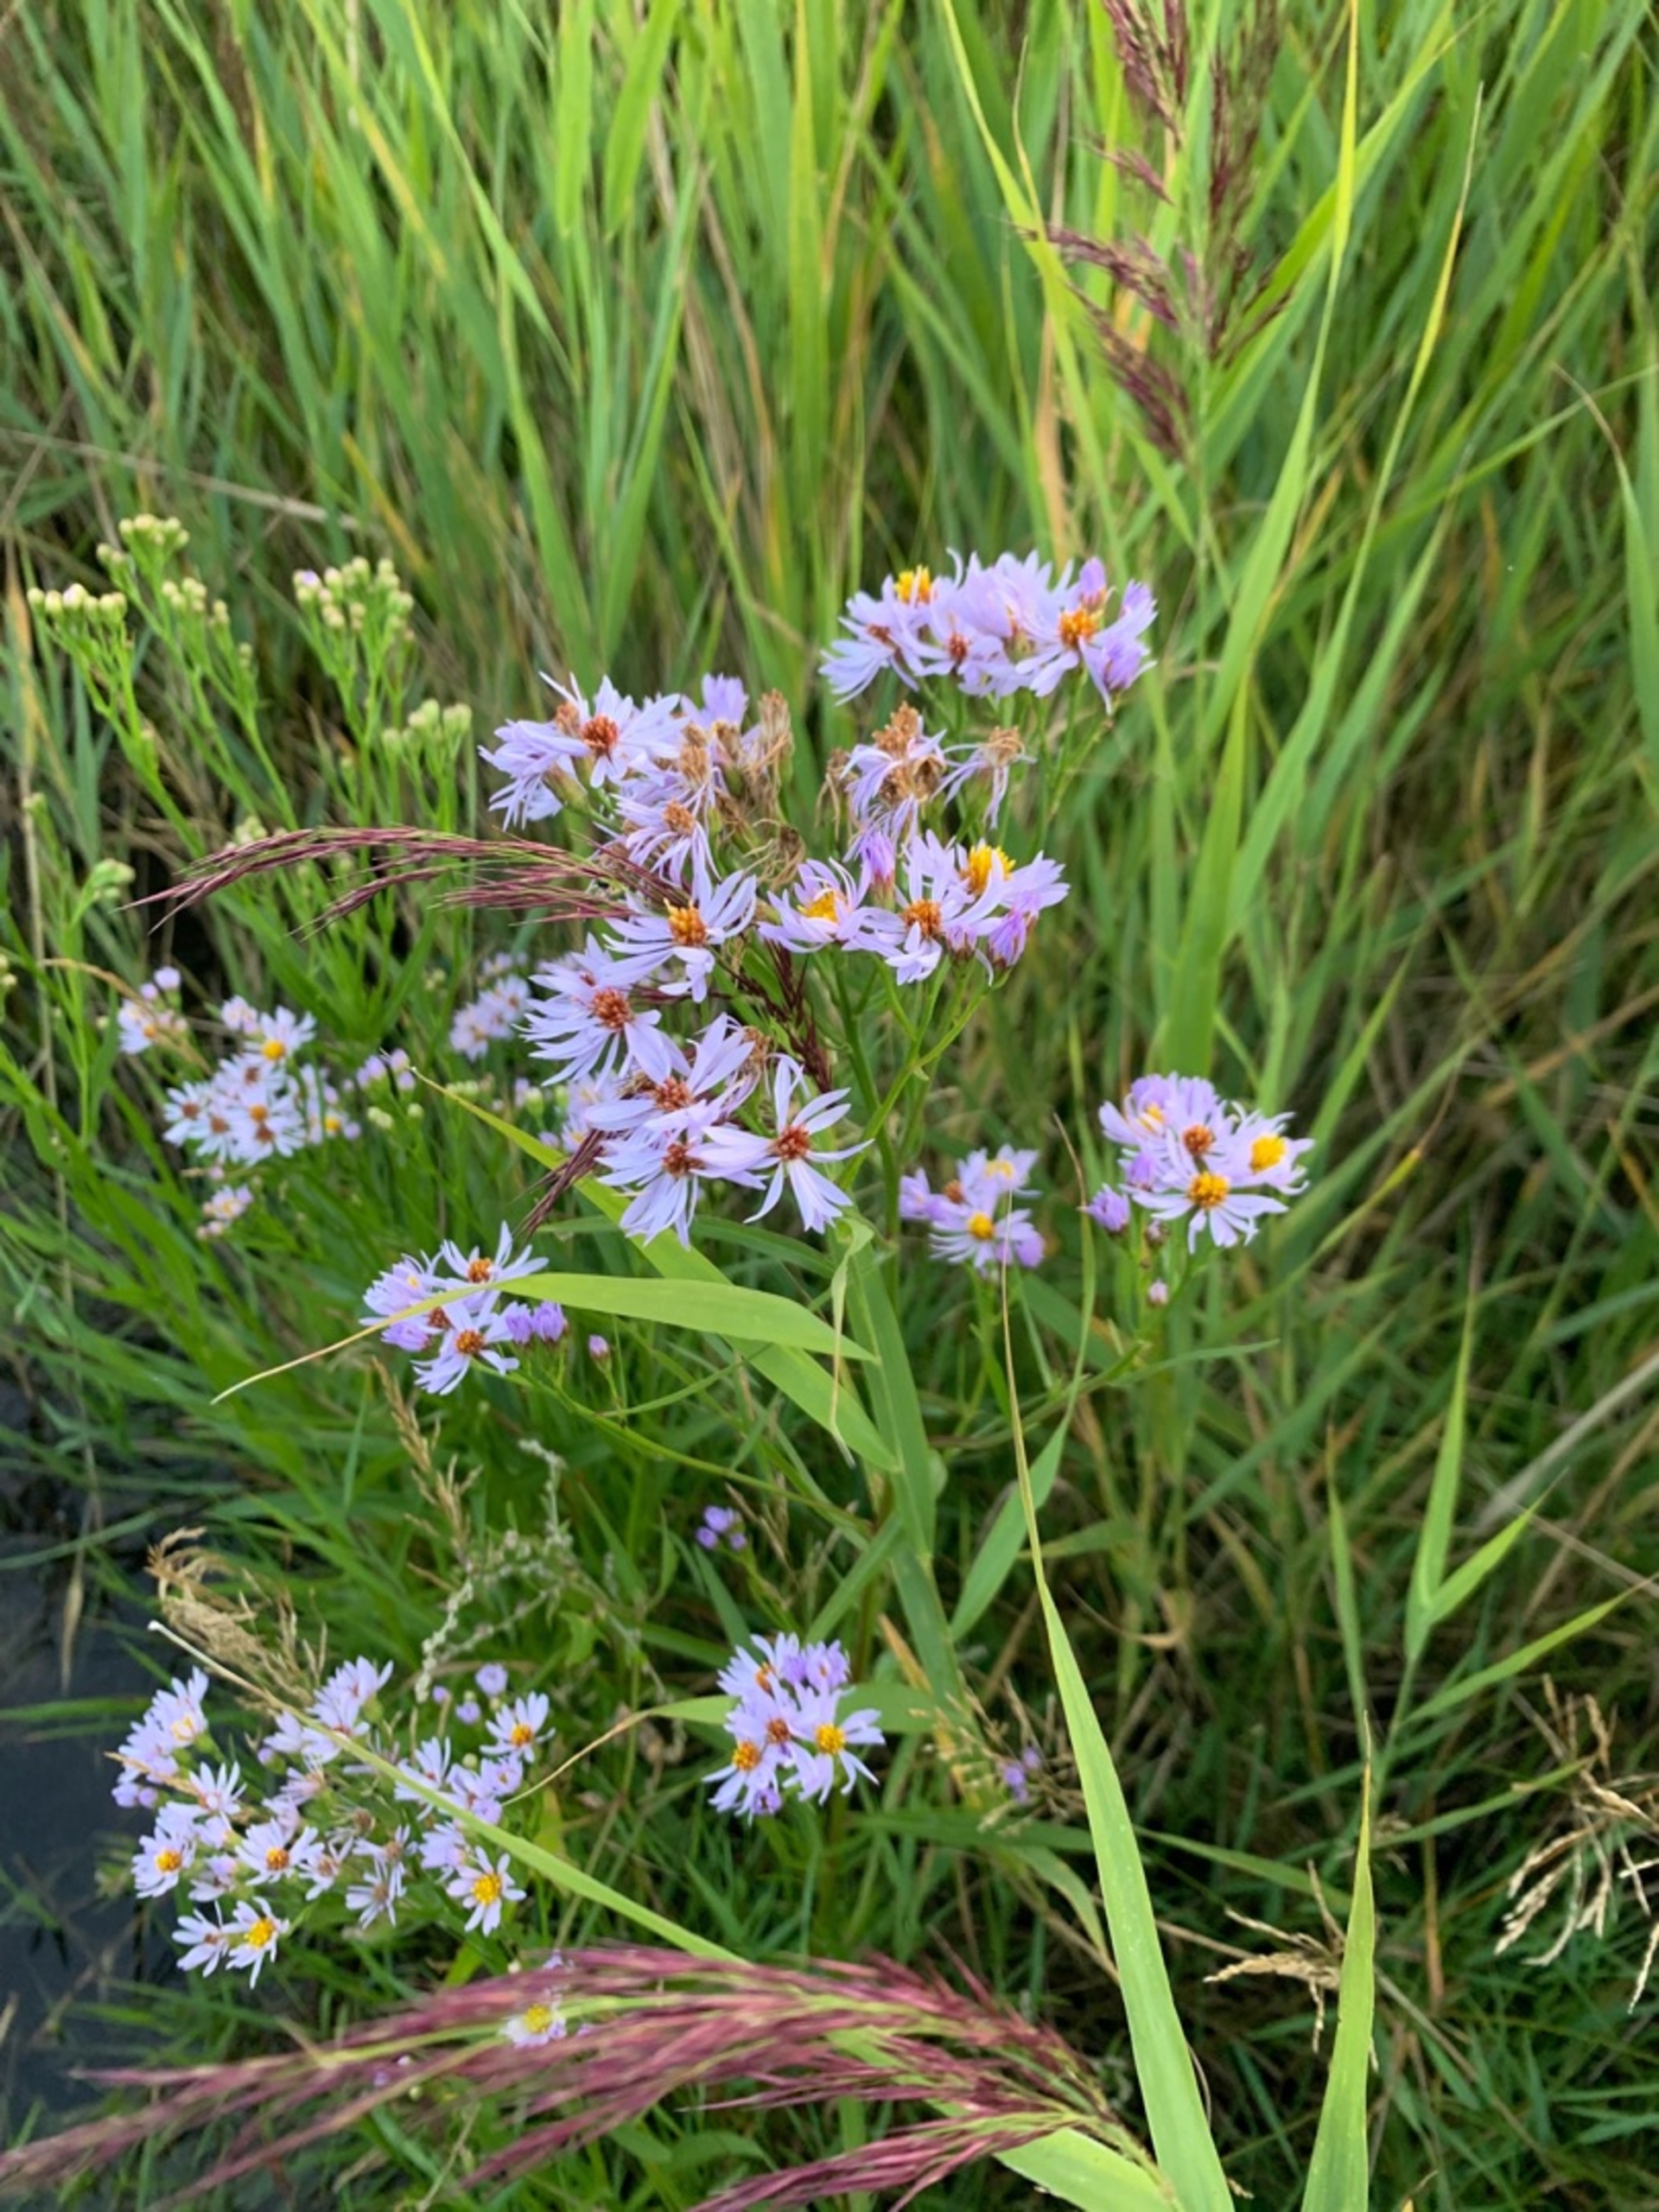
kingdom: Plantae
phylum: Tracheophyta
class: Magnoliopsida
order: Asterales
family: Asteraceae
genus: Tripolium
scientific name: Tripolium pannonicum
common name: Strandasters
